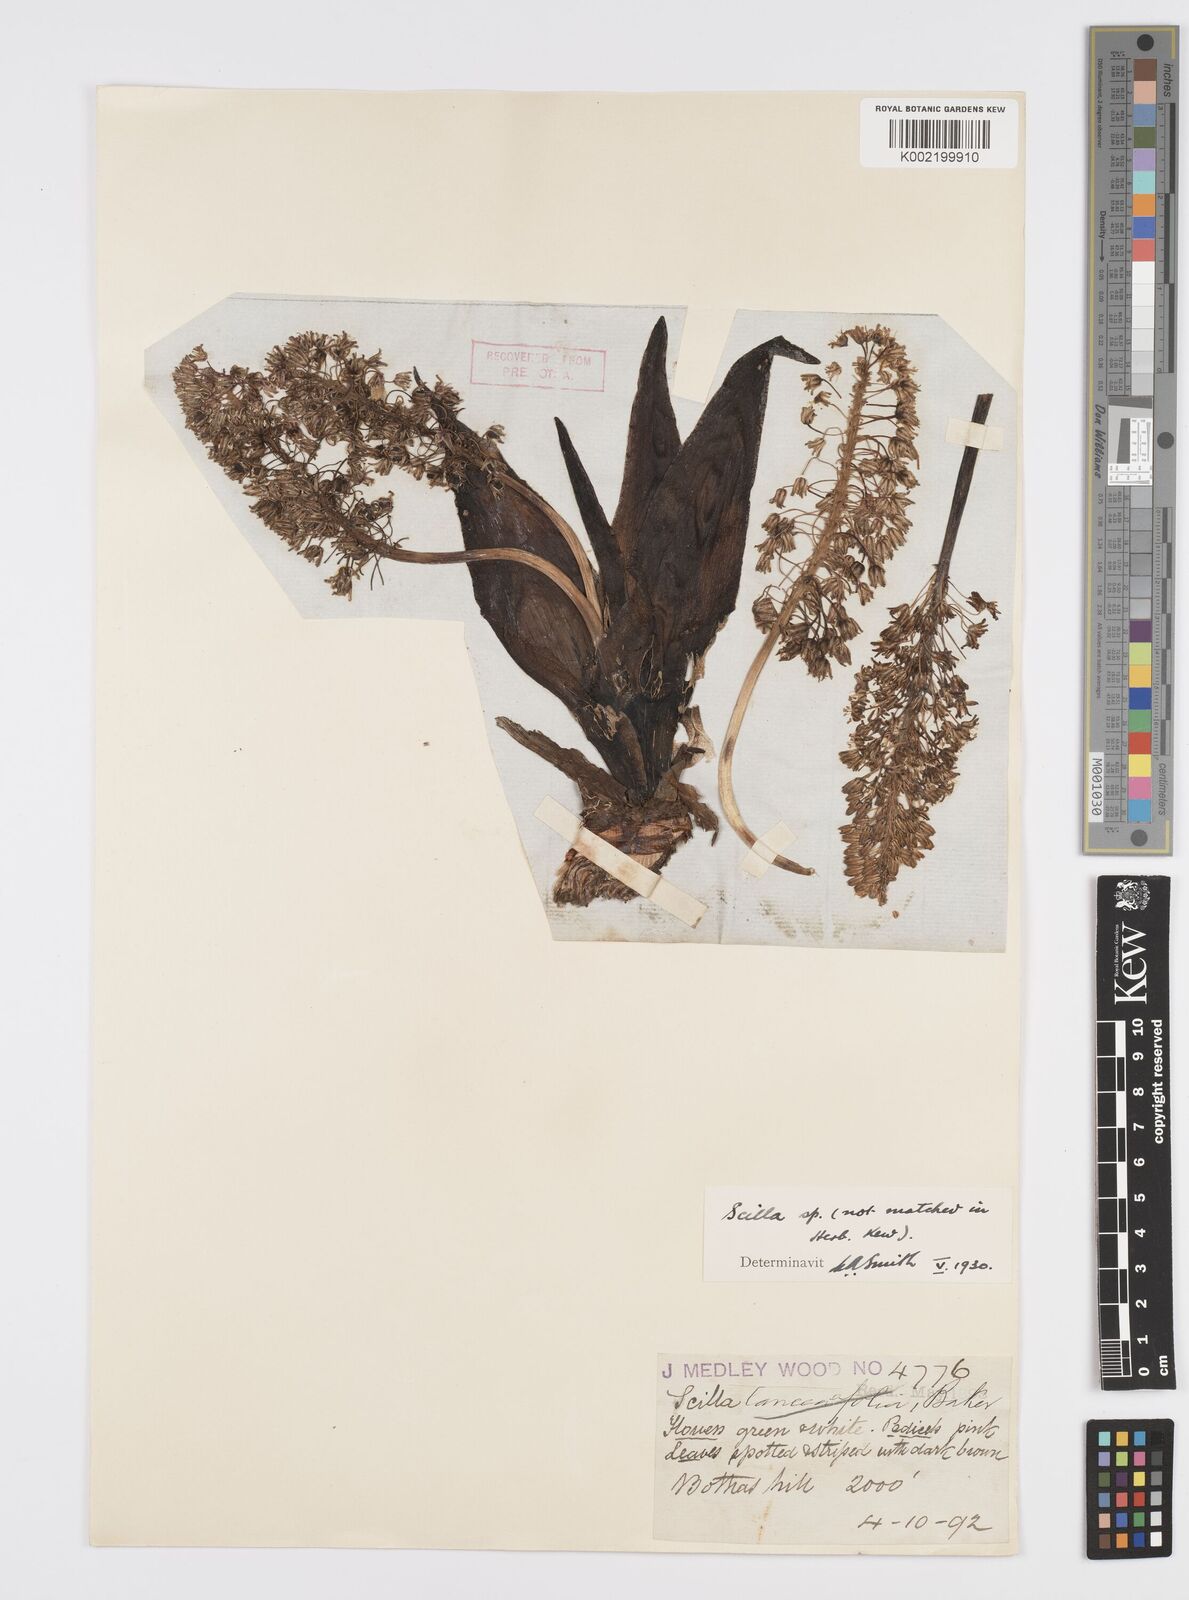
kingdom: Plantae
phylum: Tracheophyta
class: Liliopsida
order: Asparagales
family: Asparagaceae
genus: Ledebouria
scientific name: Ledebouria revoluta
